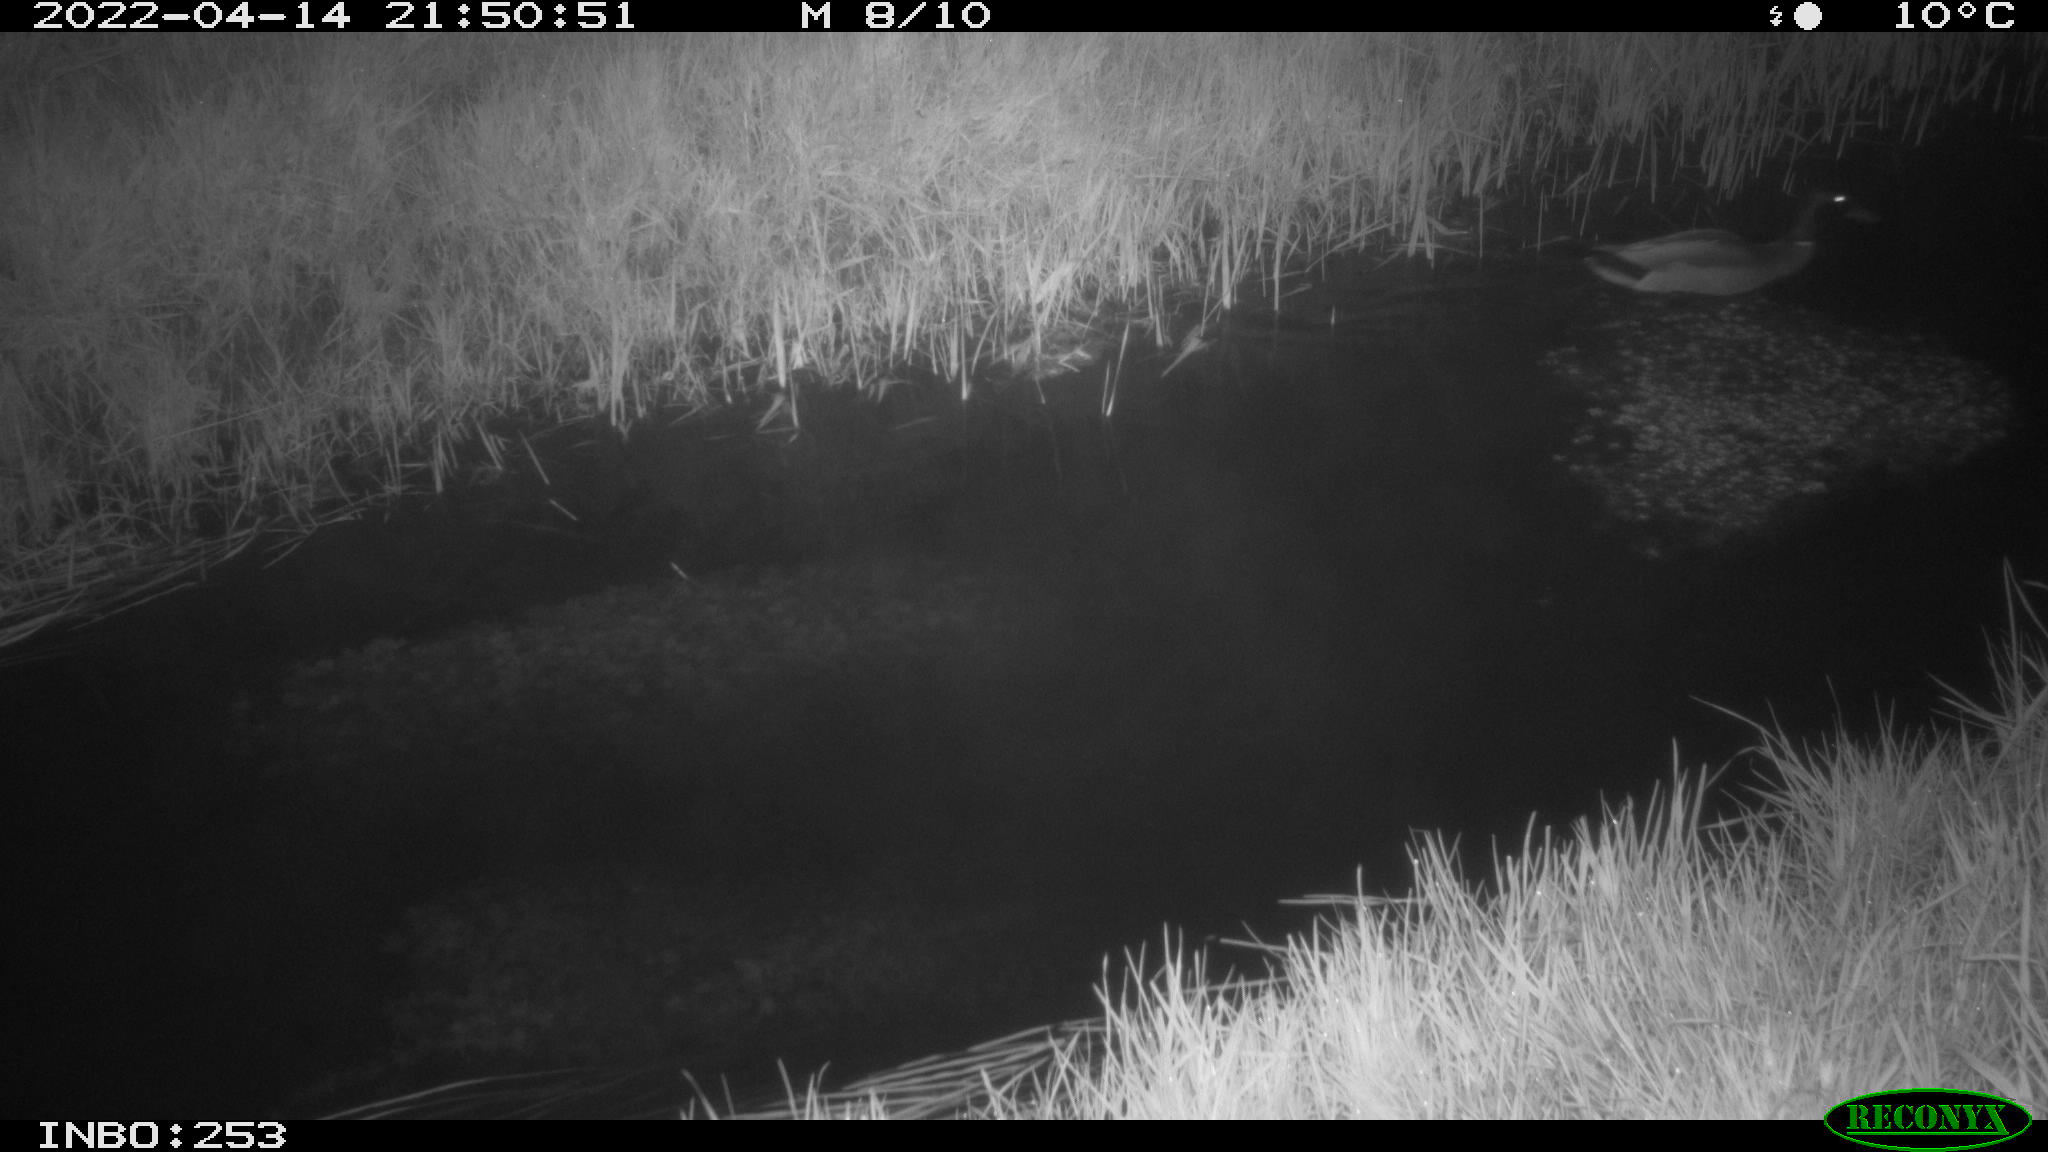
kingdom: Animalia
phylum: Chordata
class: Aves
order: Anseriformes
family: Anatidae
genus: Anas
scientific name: Anas platyrhynchos
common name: Mallard
